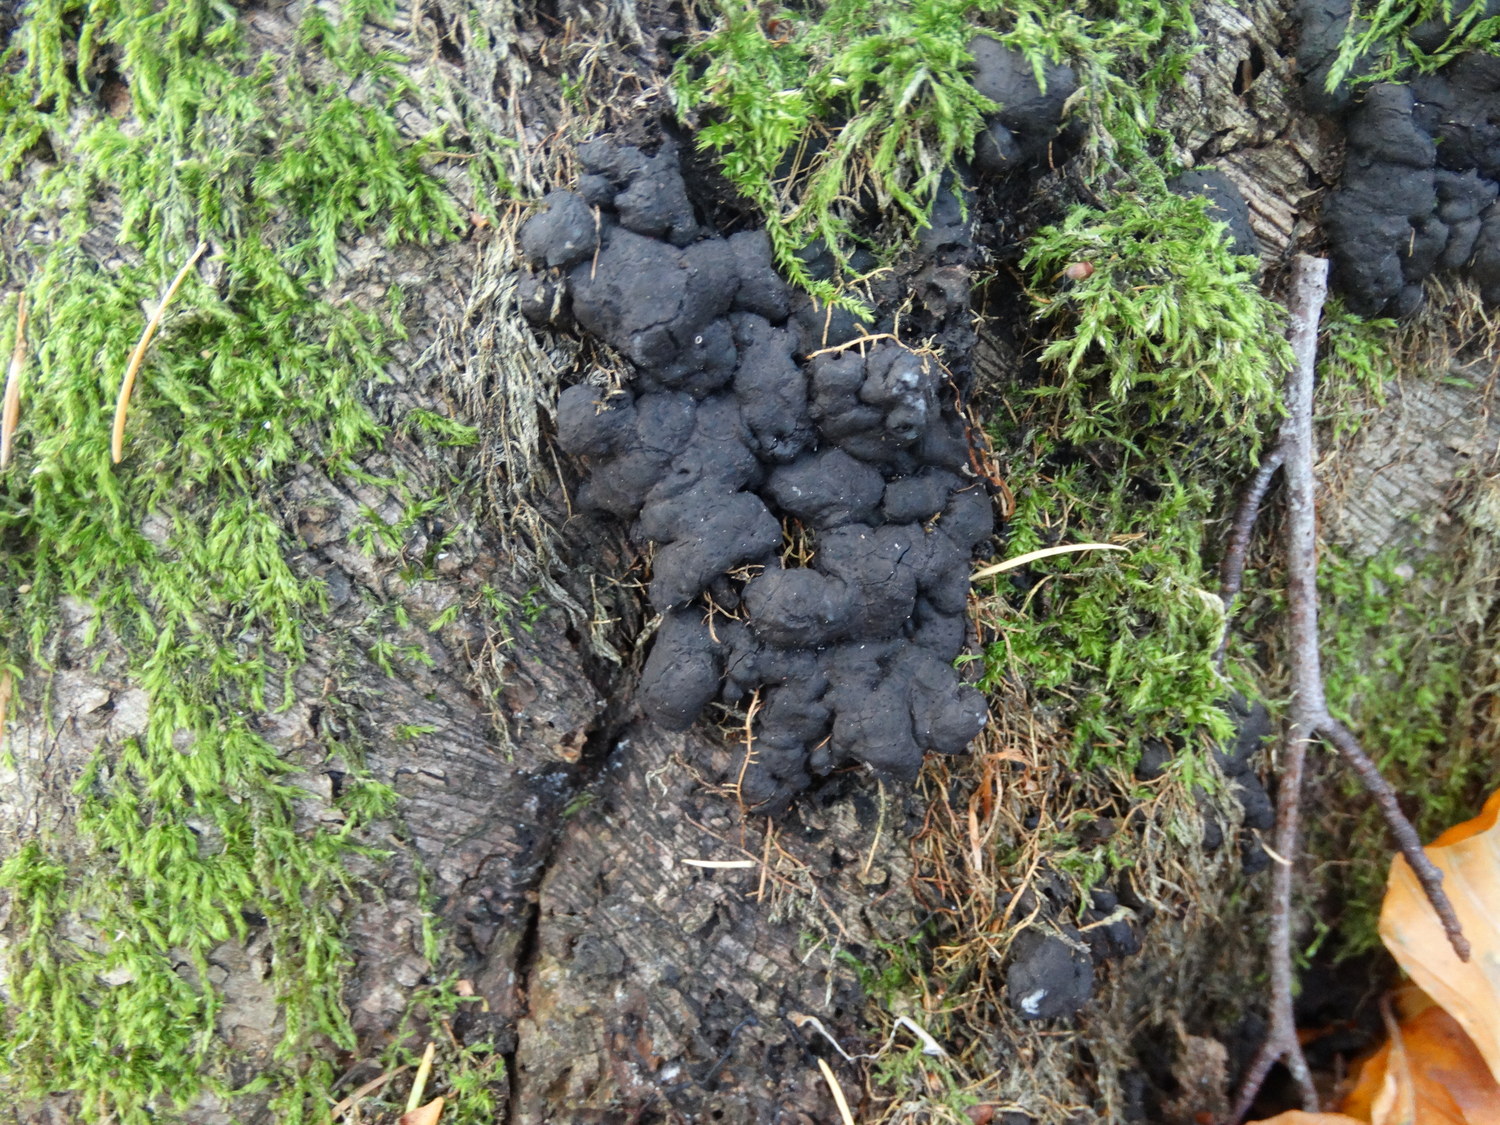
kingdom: Fungi
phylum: Ascomycota
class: Sordariomycetes
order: Xylariales
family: Xylariaceae
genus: Kretzschmaria
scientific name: Kretzschmaria deusta
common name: stor kulsvamp
